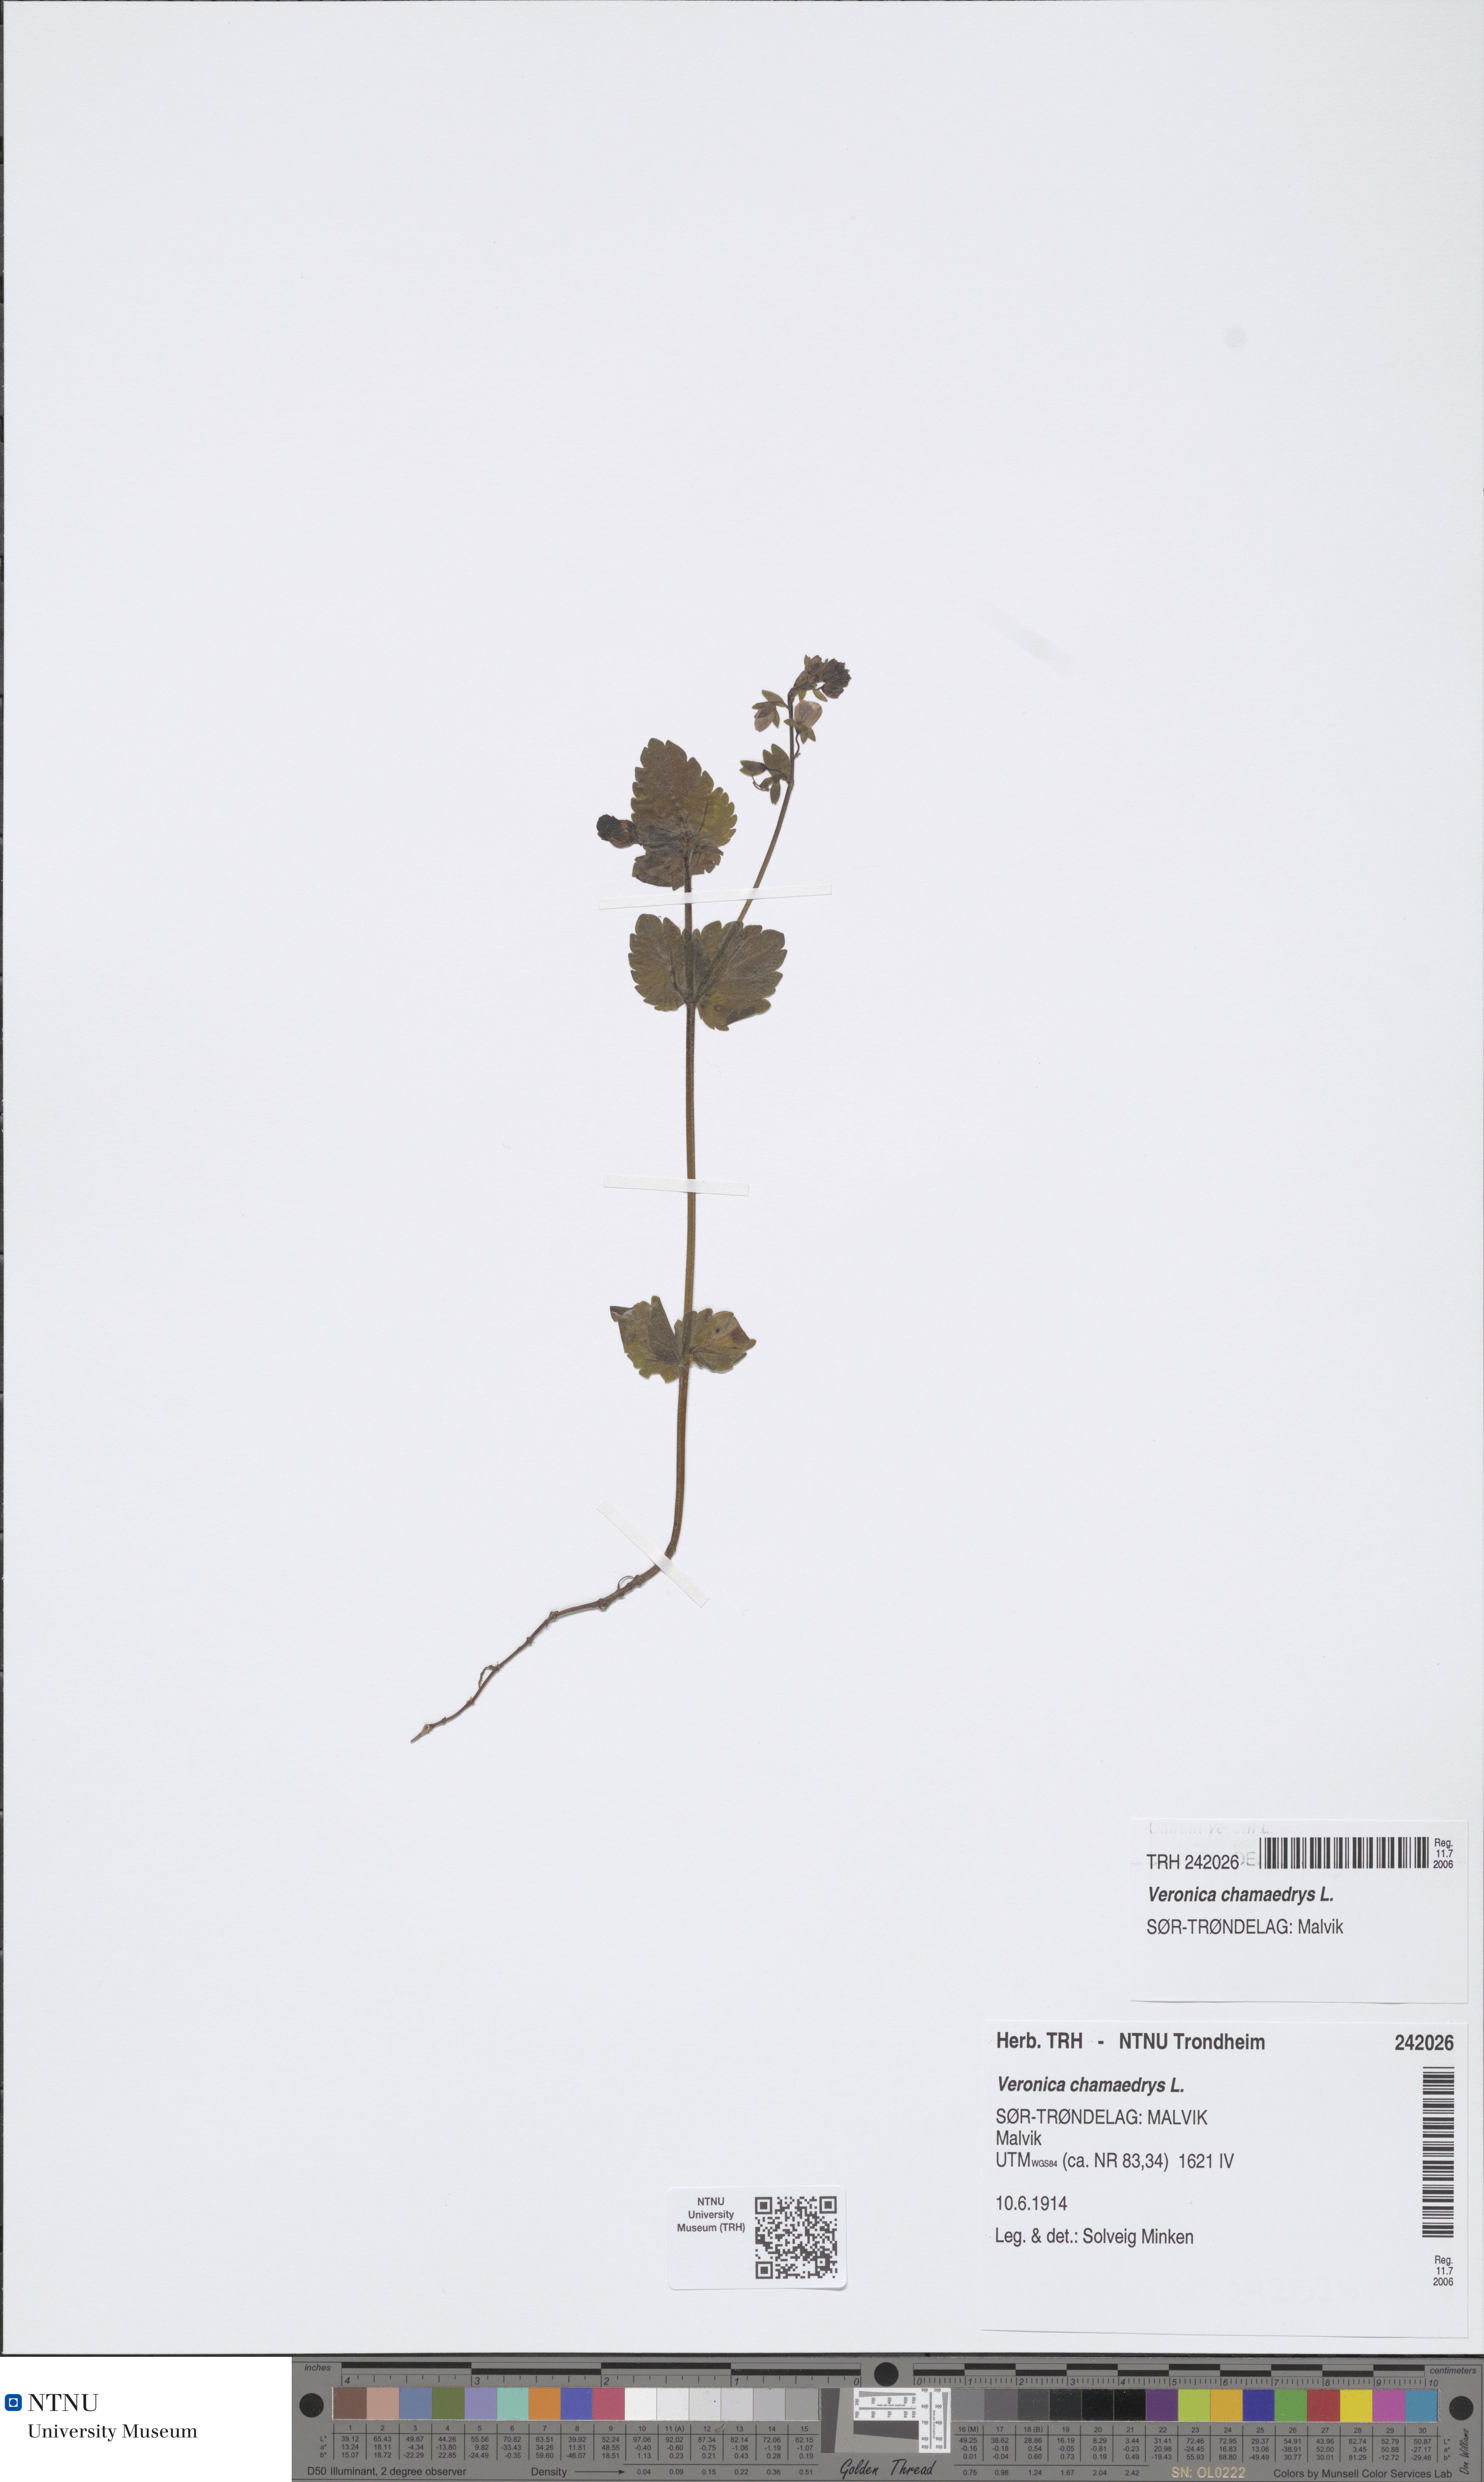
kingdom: Plantae
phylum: Tracheophyta
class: Magnoliopsida
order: Lamiales
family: Plantaginaceae
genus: Veronica
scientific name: Veronica chamaedrys
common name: Germander speedwell
